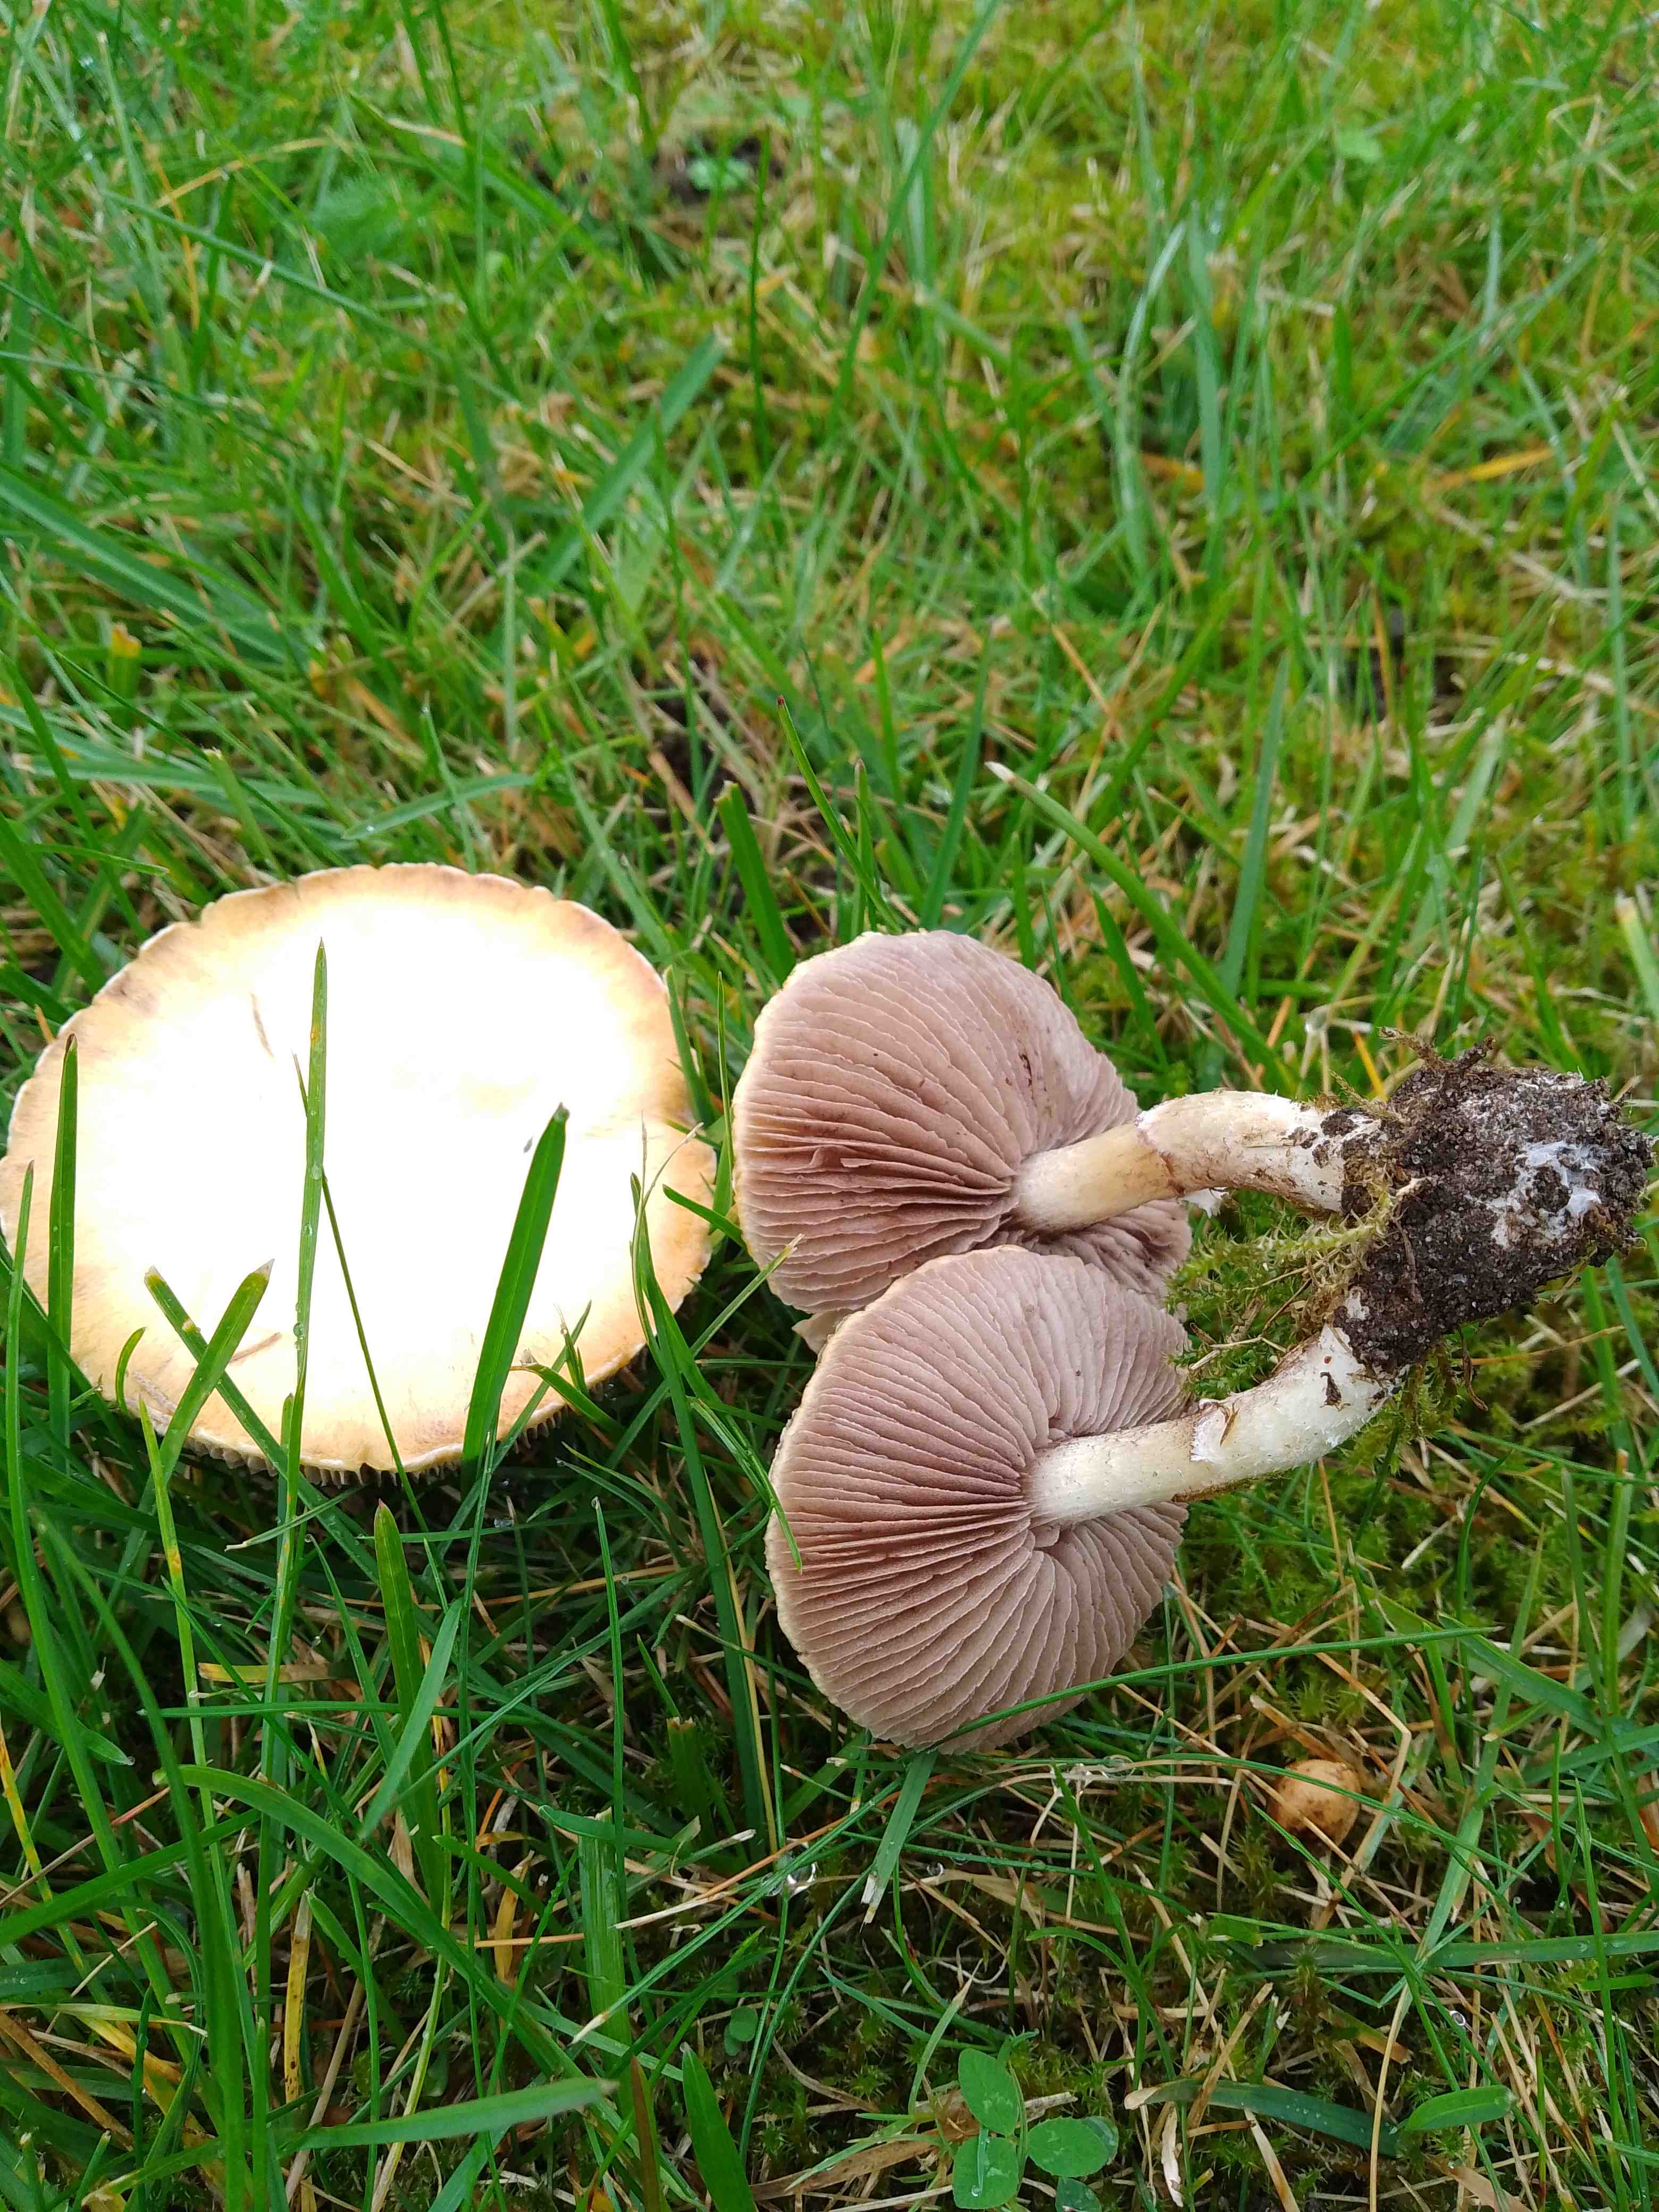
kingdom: Fungi
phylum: Basidiomycota
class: Agaricomycetes
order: Agaricales
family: Hymenogastraceae
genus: Psilocybe
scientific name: Psilocybe coronilla
